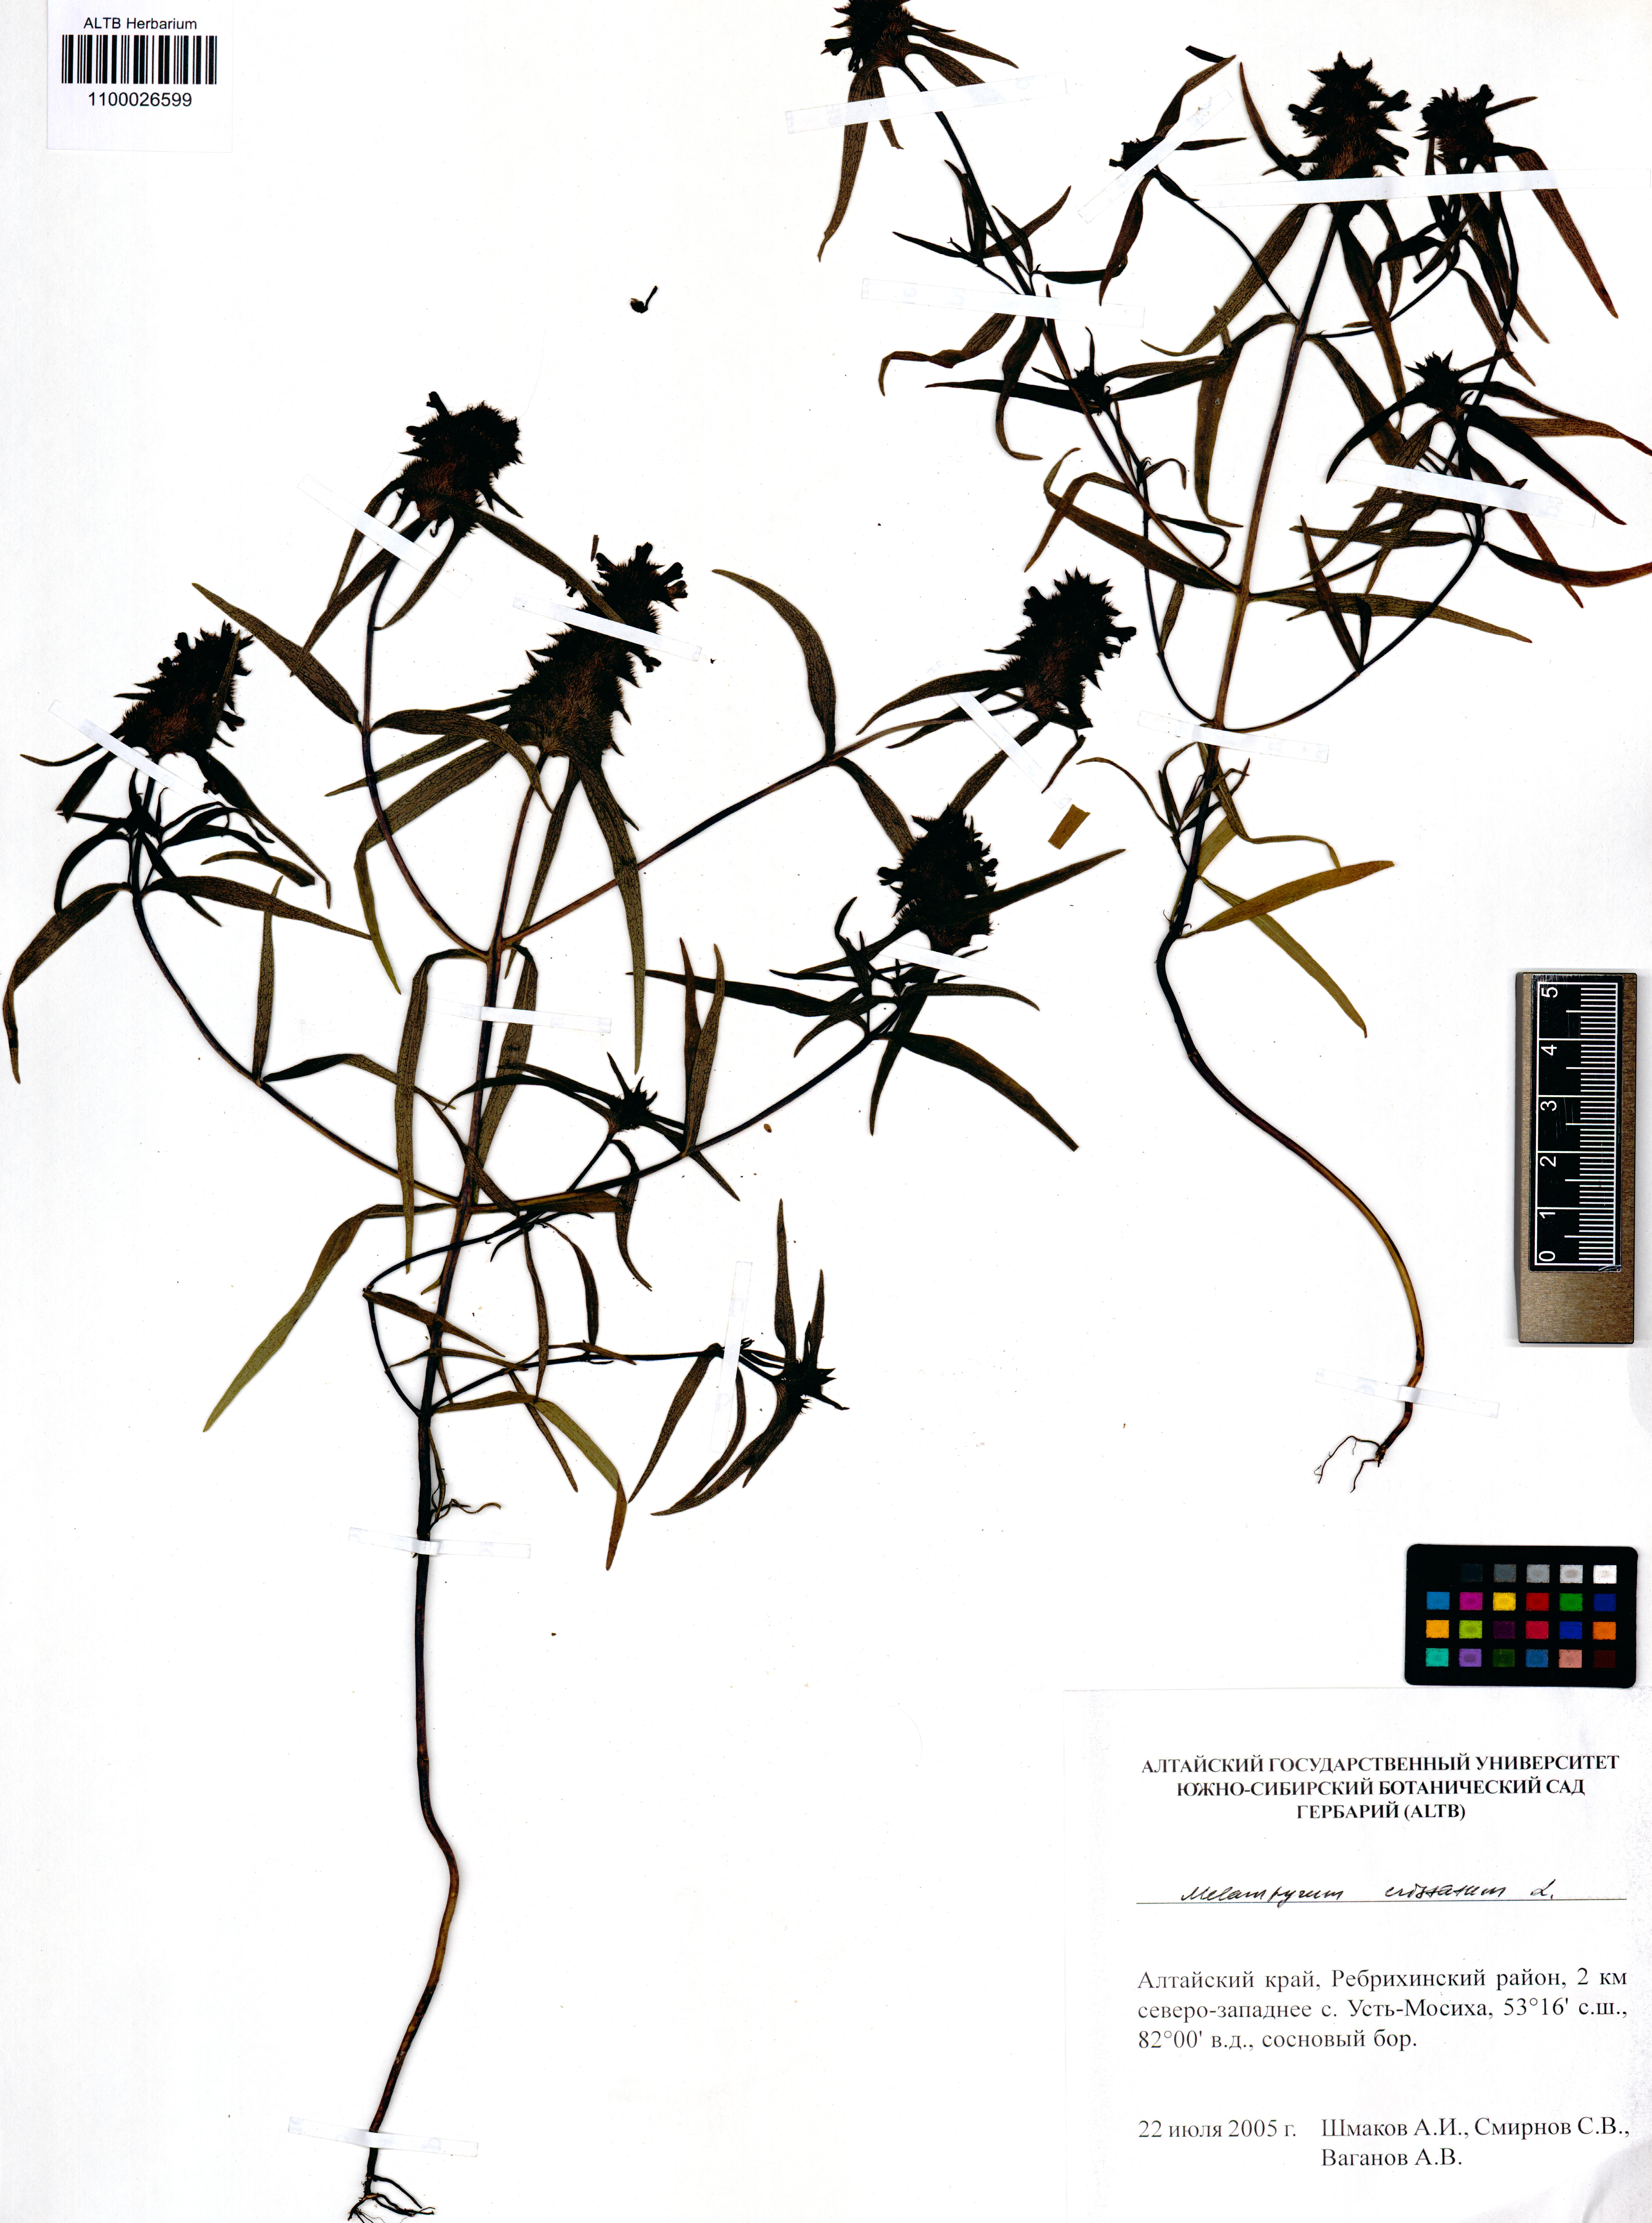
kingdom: Plantae
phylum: Tracheophyta
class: Magnoliopsida
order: Lamiales
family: Orobanchaceae
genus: Melampyrum
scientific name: Melampyrum cristatum
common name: Crested cow-wheat
